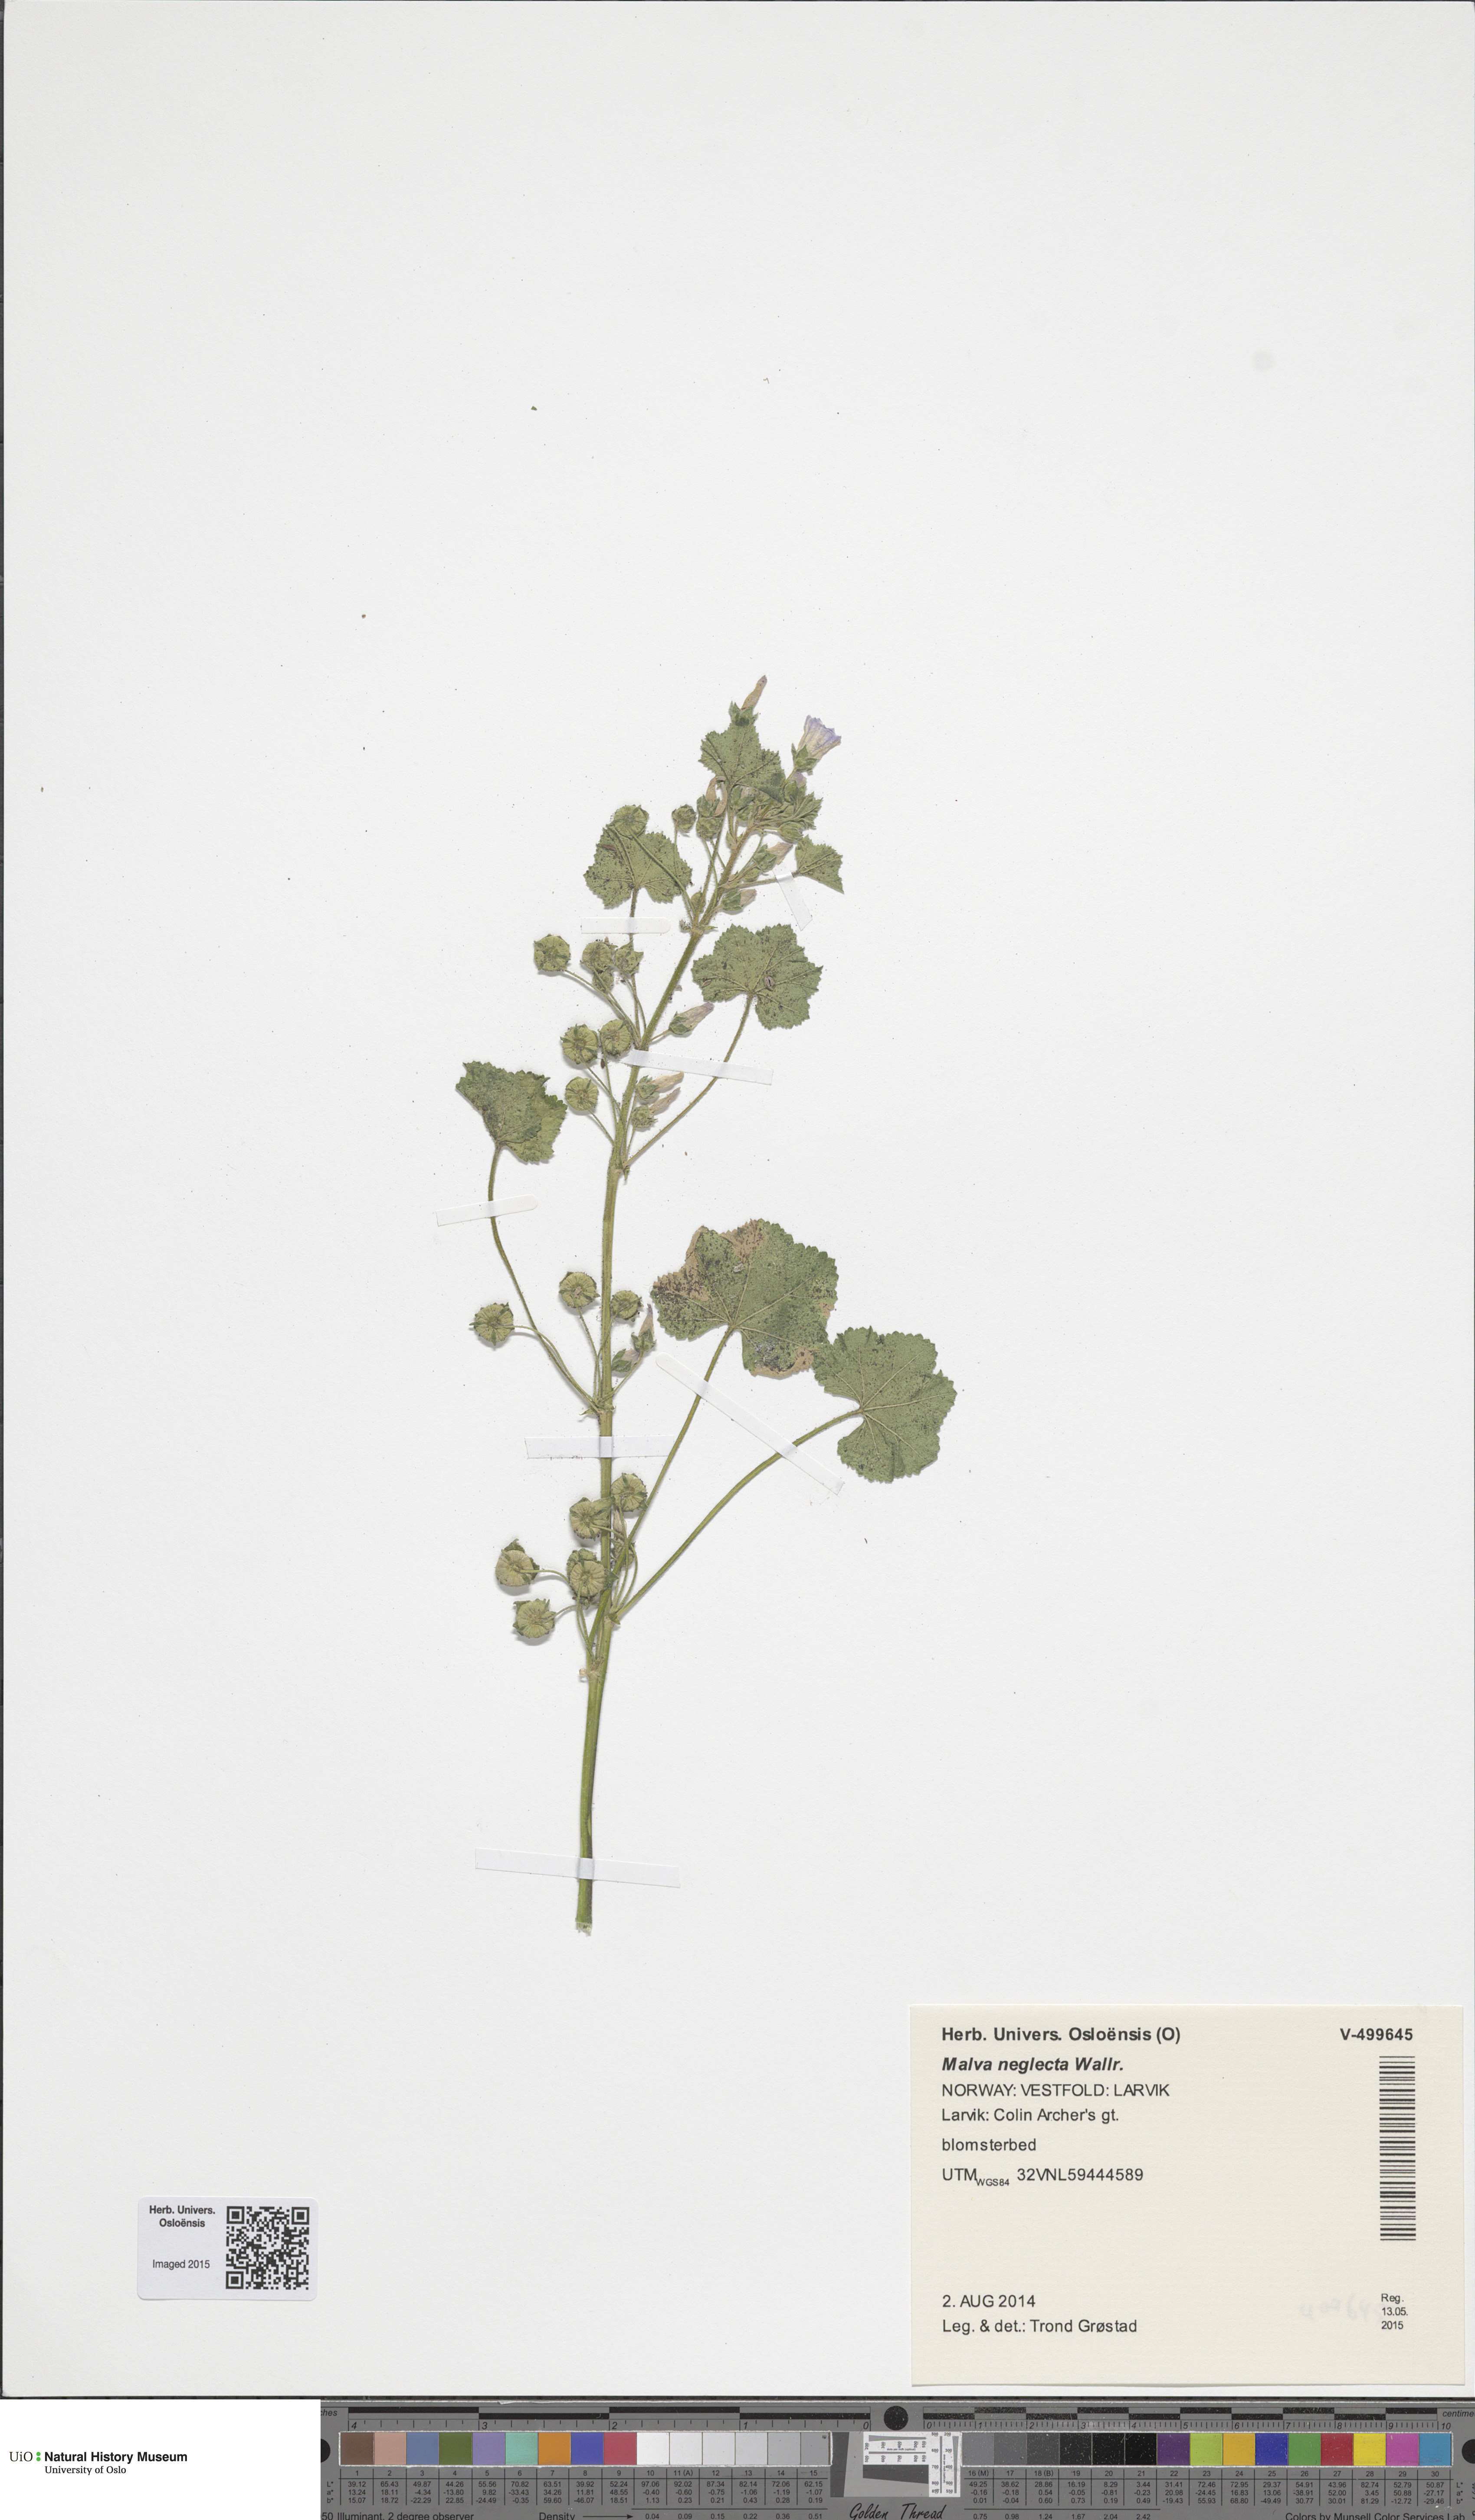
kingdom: Plantae
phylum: Tracheophyta
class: Magnoliopsida
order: Malvales
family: Malvaceae
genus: Malva
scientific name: Malva neglecta
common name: Common mallow
